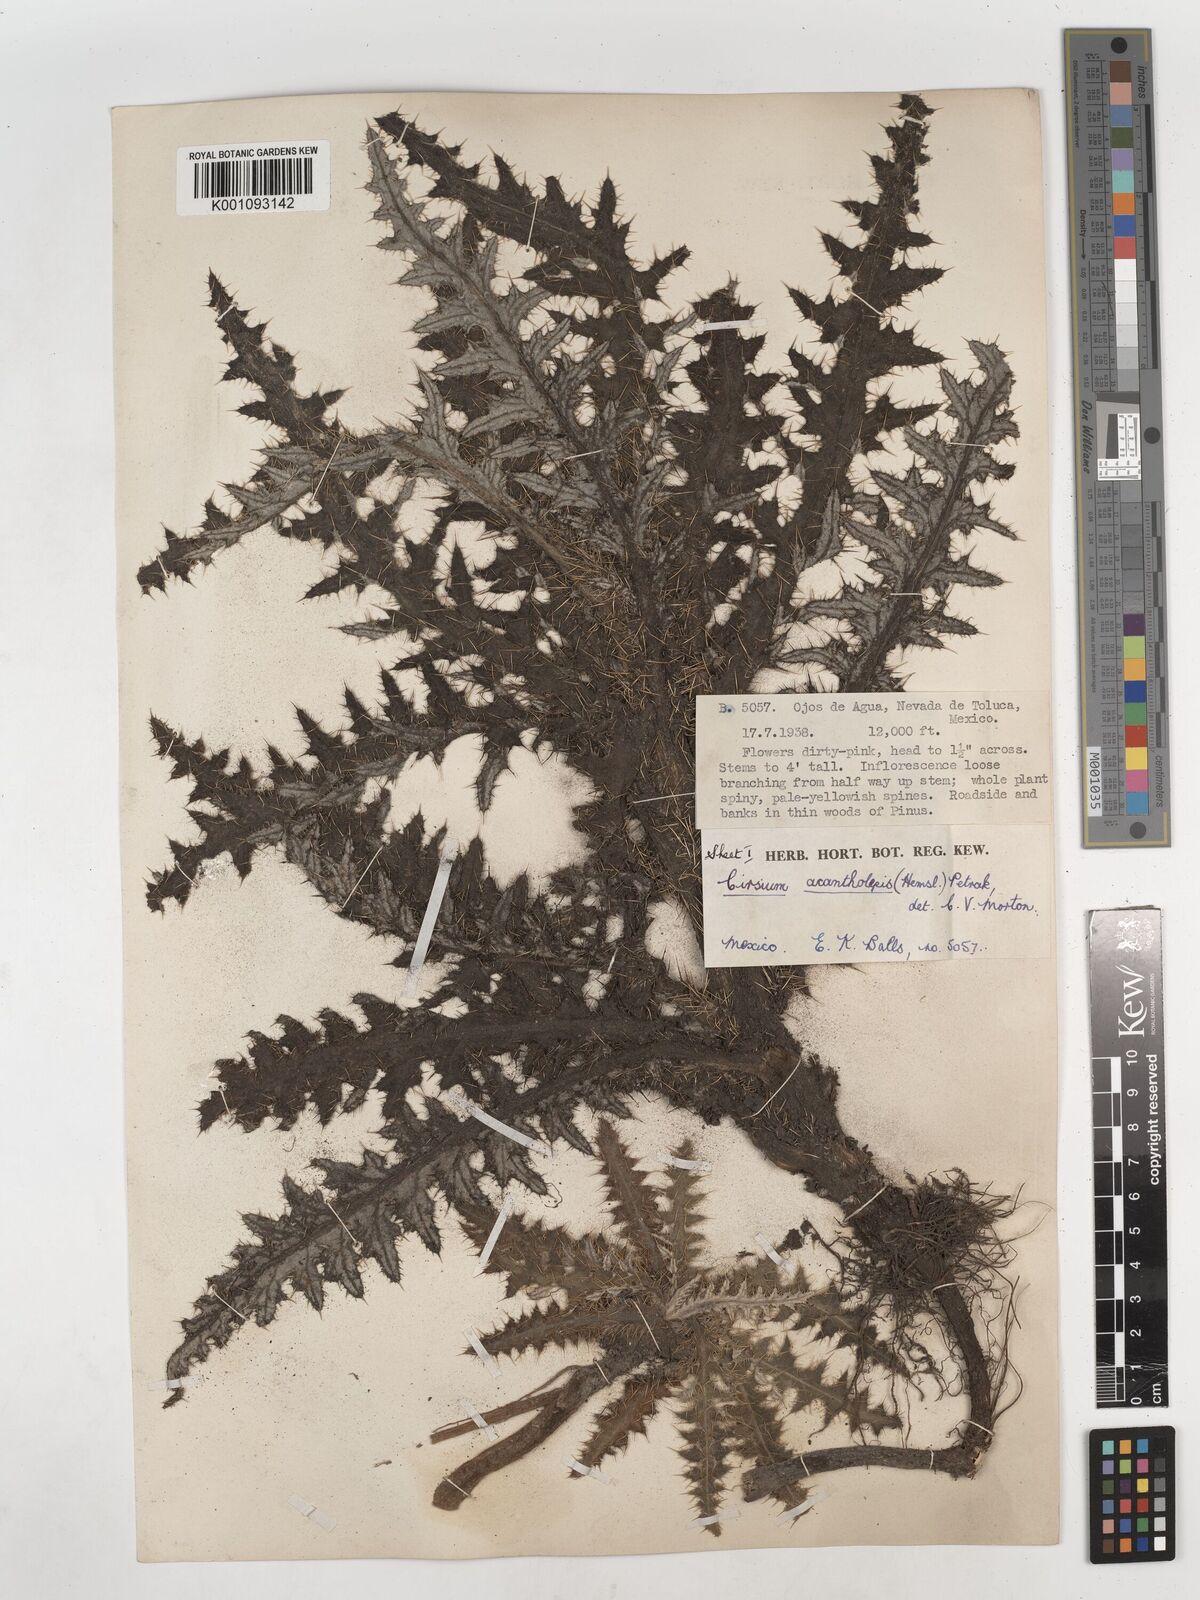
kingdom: Plantae
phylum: Tracheophyta
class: Magnoliopsida
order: Asterales
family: Asteraceae
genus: Cirsium
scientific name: Cirsium jorullense
